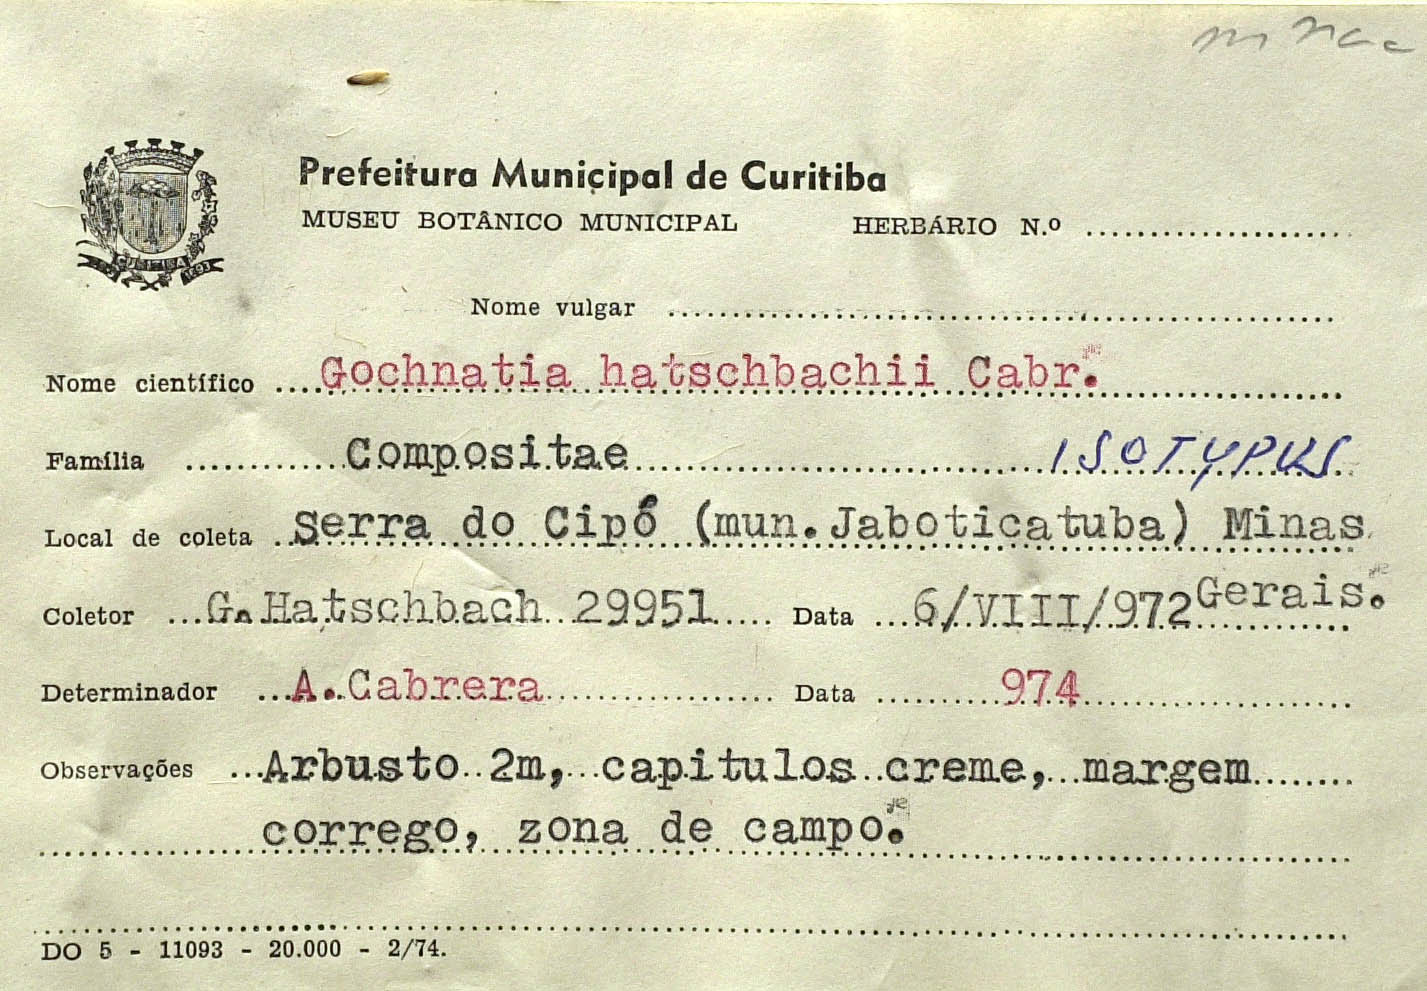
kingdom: Plantae
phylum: Tracheophyta
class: Magnoliopsida
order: Asterales
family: Asteraceae
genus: Moquiniastrum
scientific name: Moquiniastrum hatschbachii
